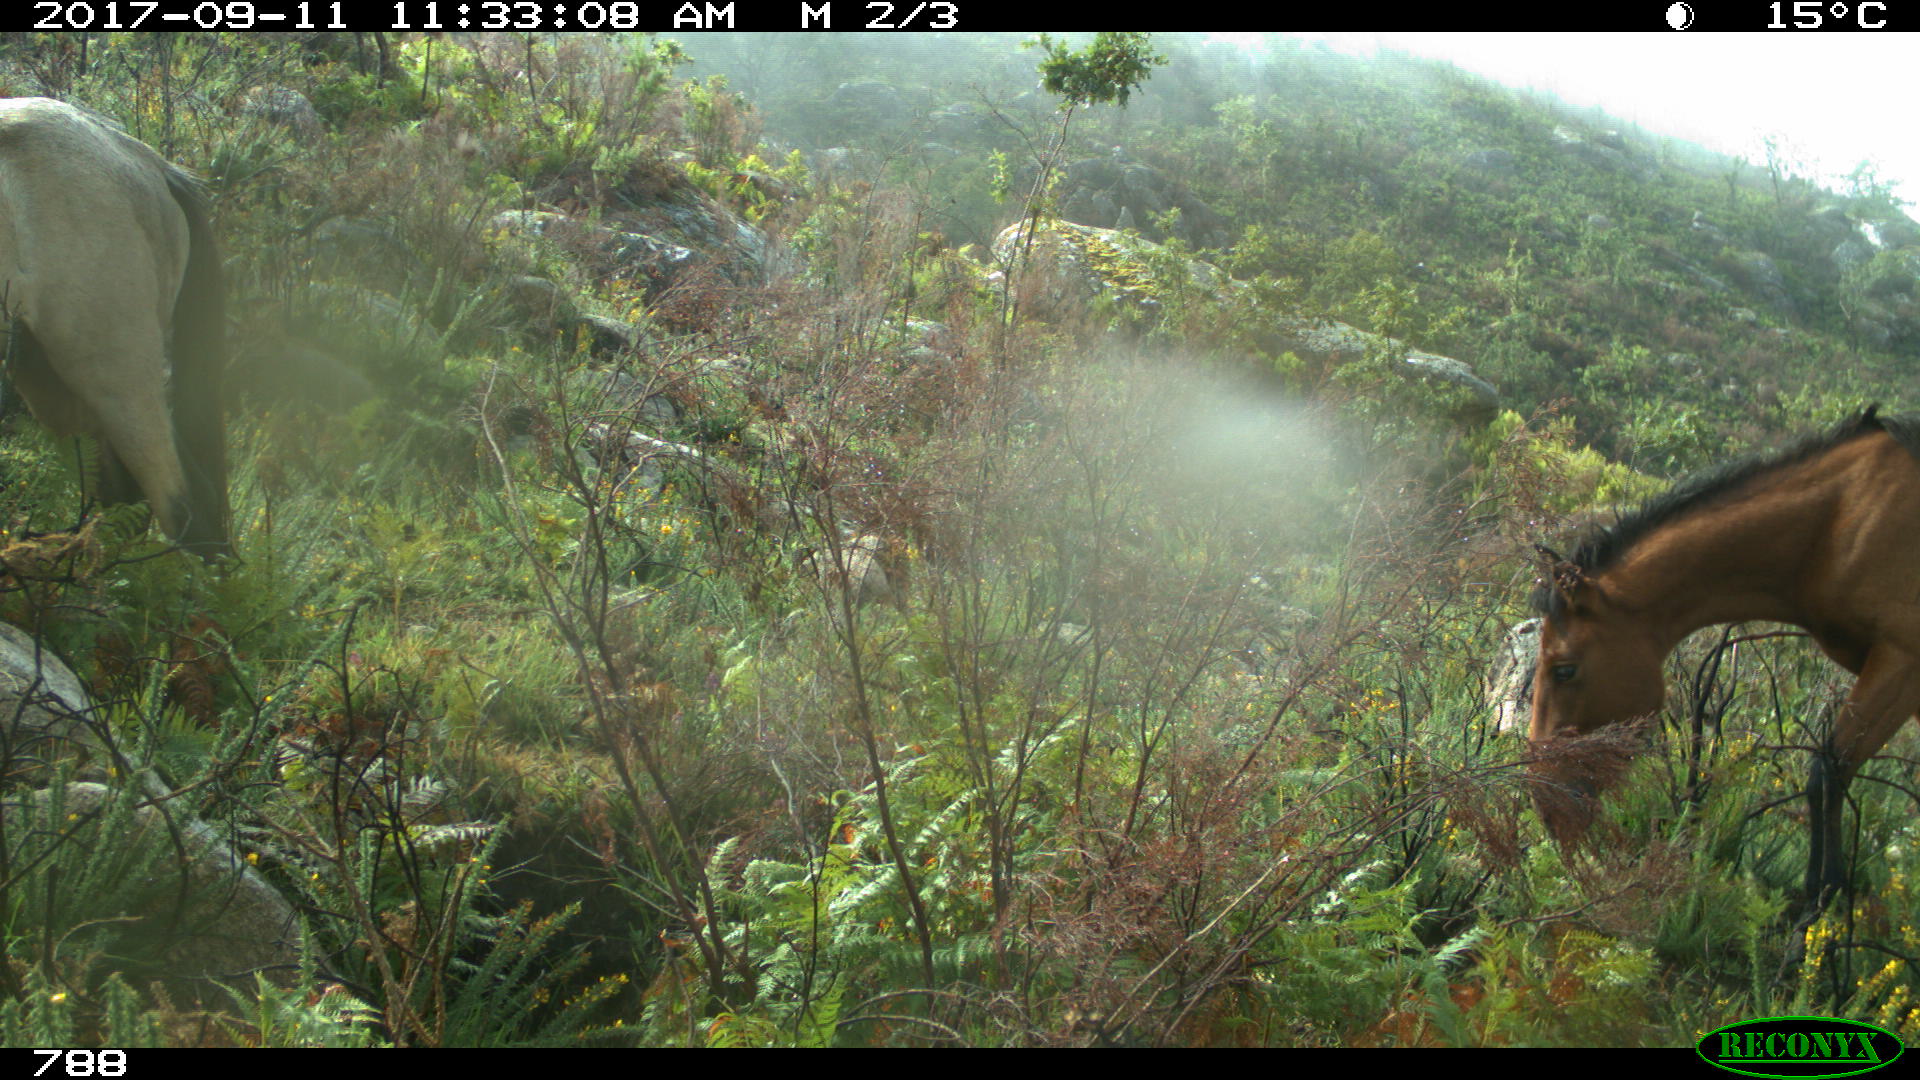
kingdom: Animalia
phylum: Chordata
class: Mammalia
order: Perissodactyla
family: Equidae
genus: Equus
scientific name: Equus caballus
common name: Horse
